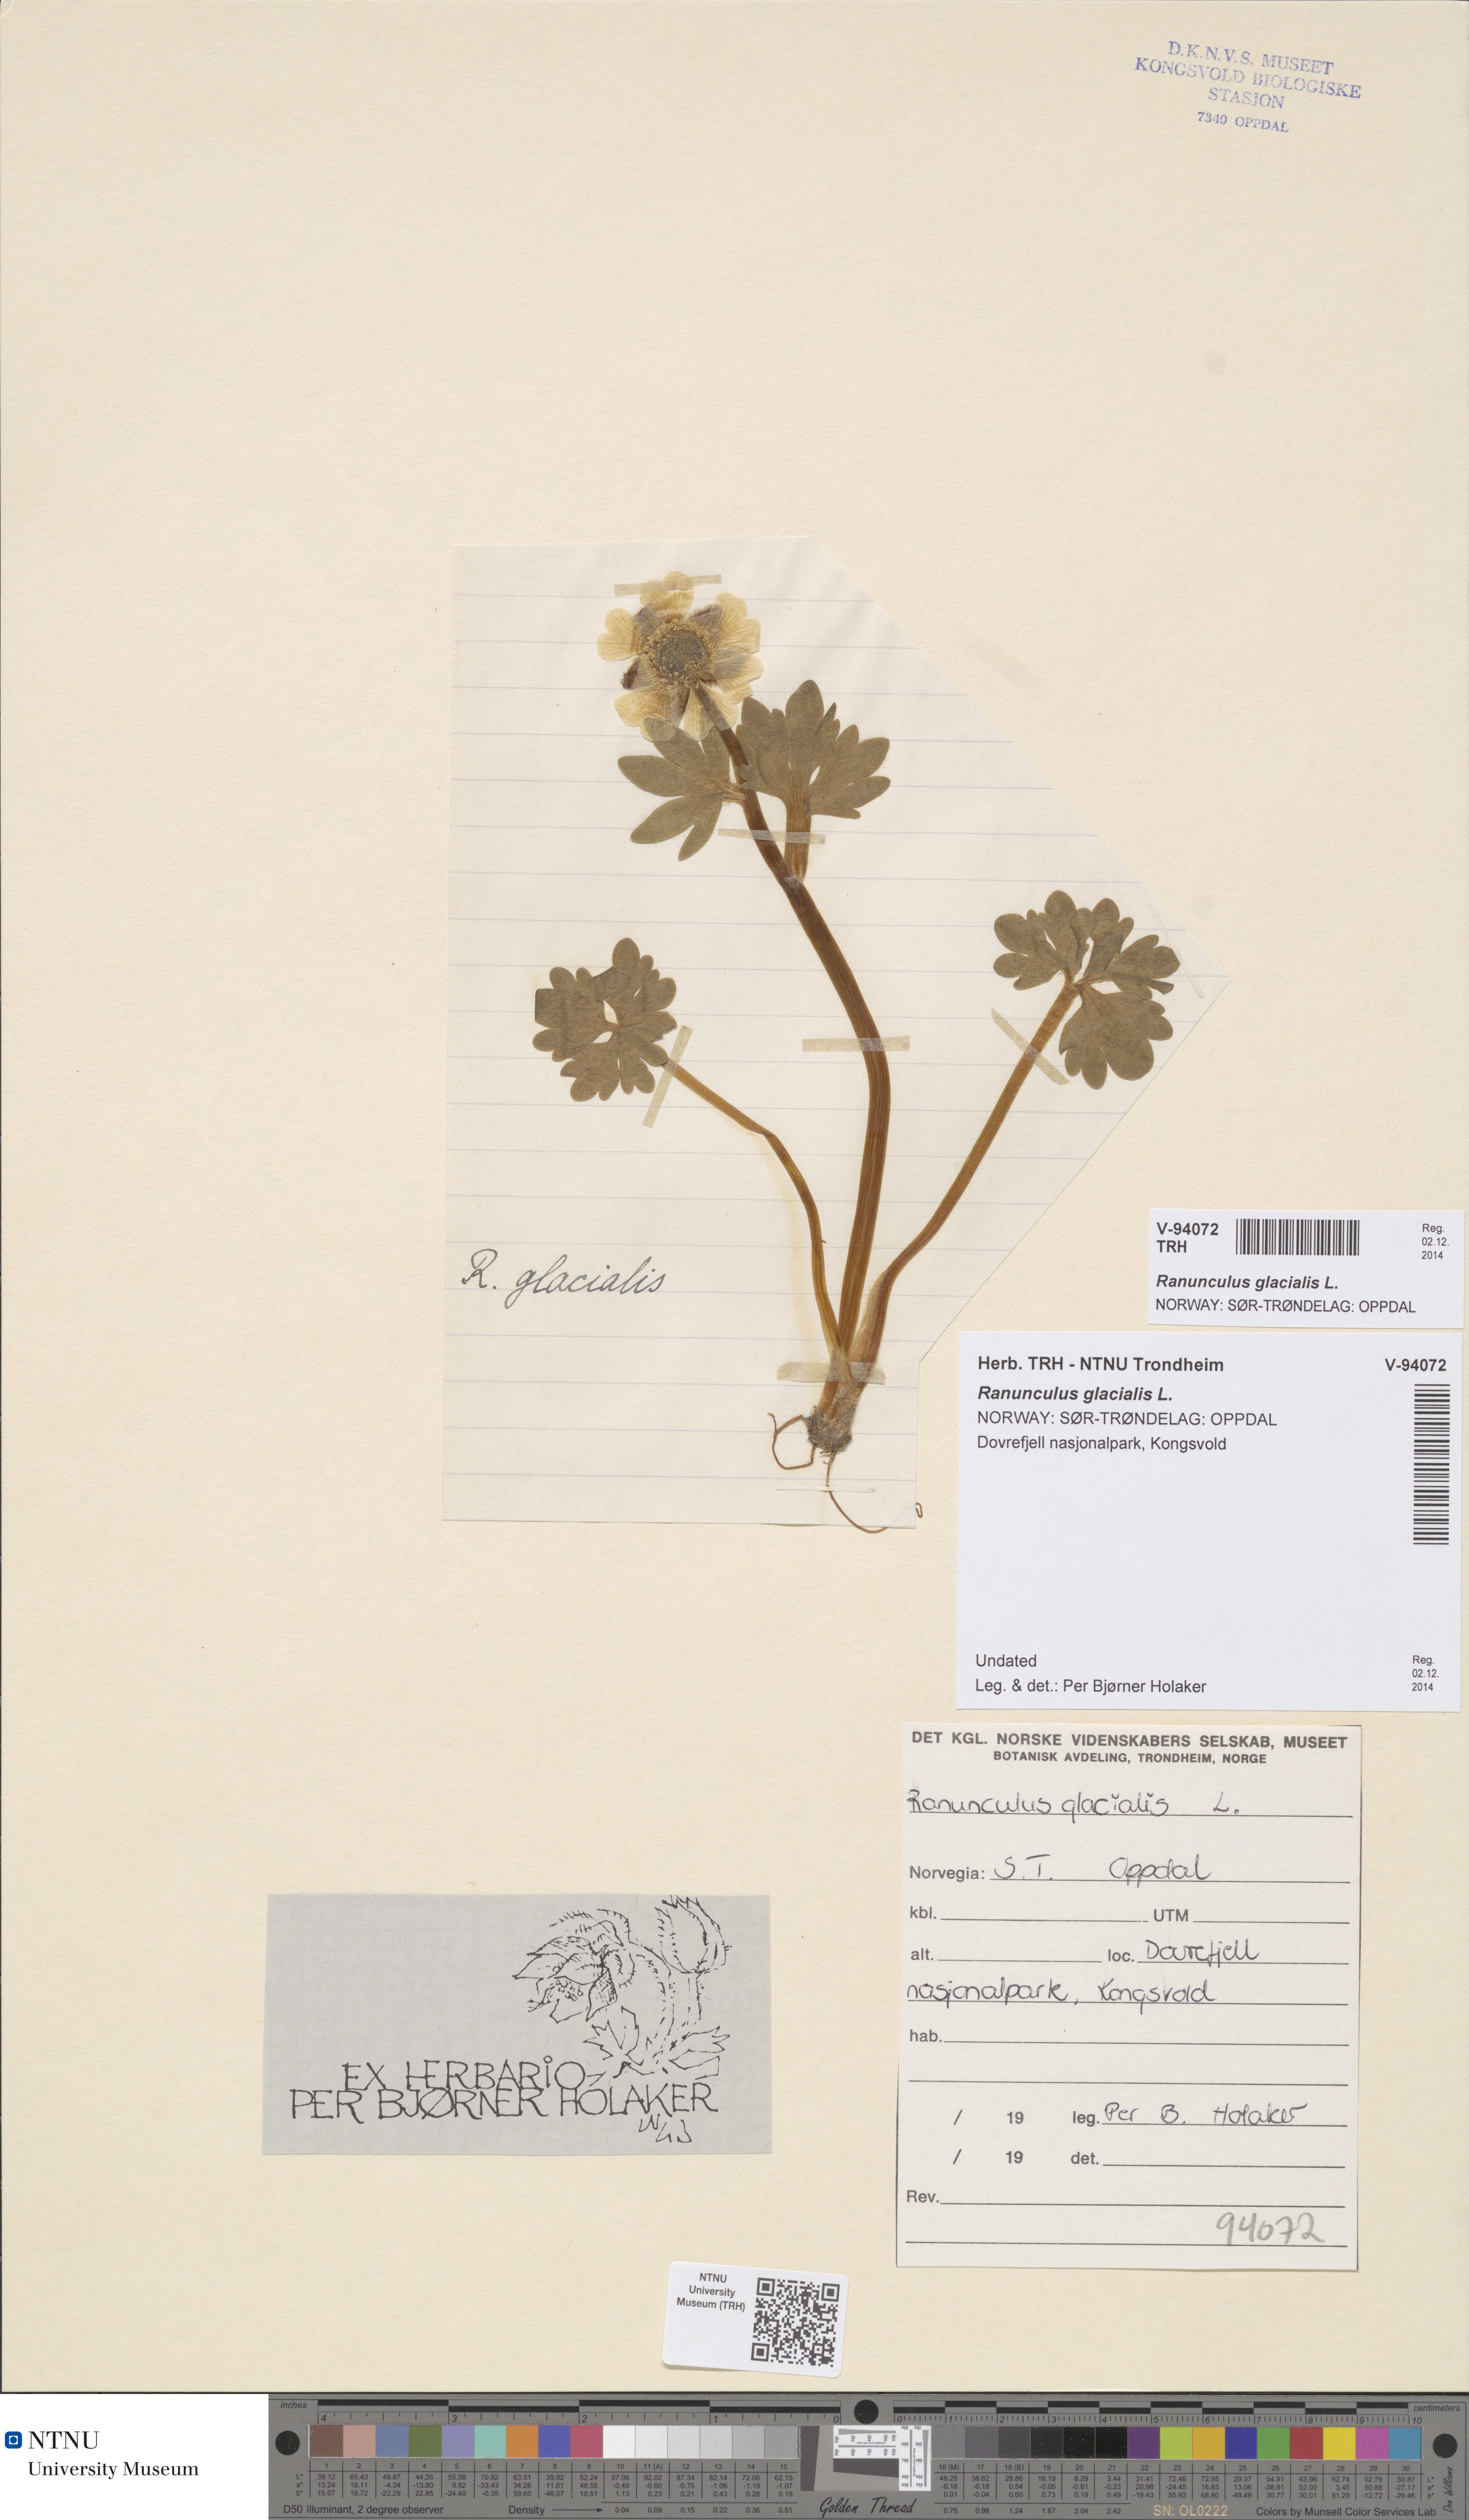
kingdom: Plantae
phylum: Tracheophyta
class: Magnoliopsida
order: Ranunculales
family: Ranunculaceae
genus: Ranunculus
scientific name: Ranunculus glacialis
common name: Glacier buttercup
